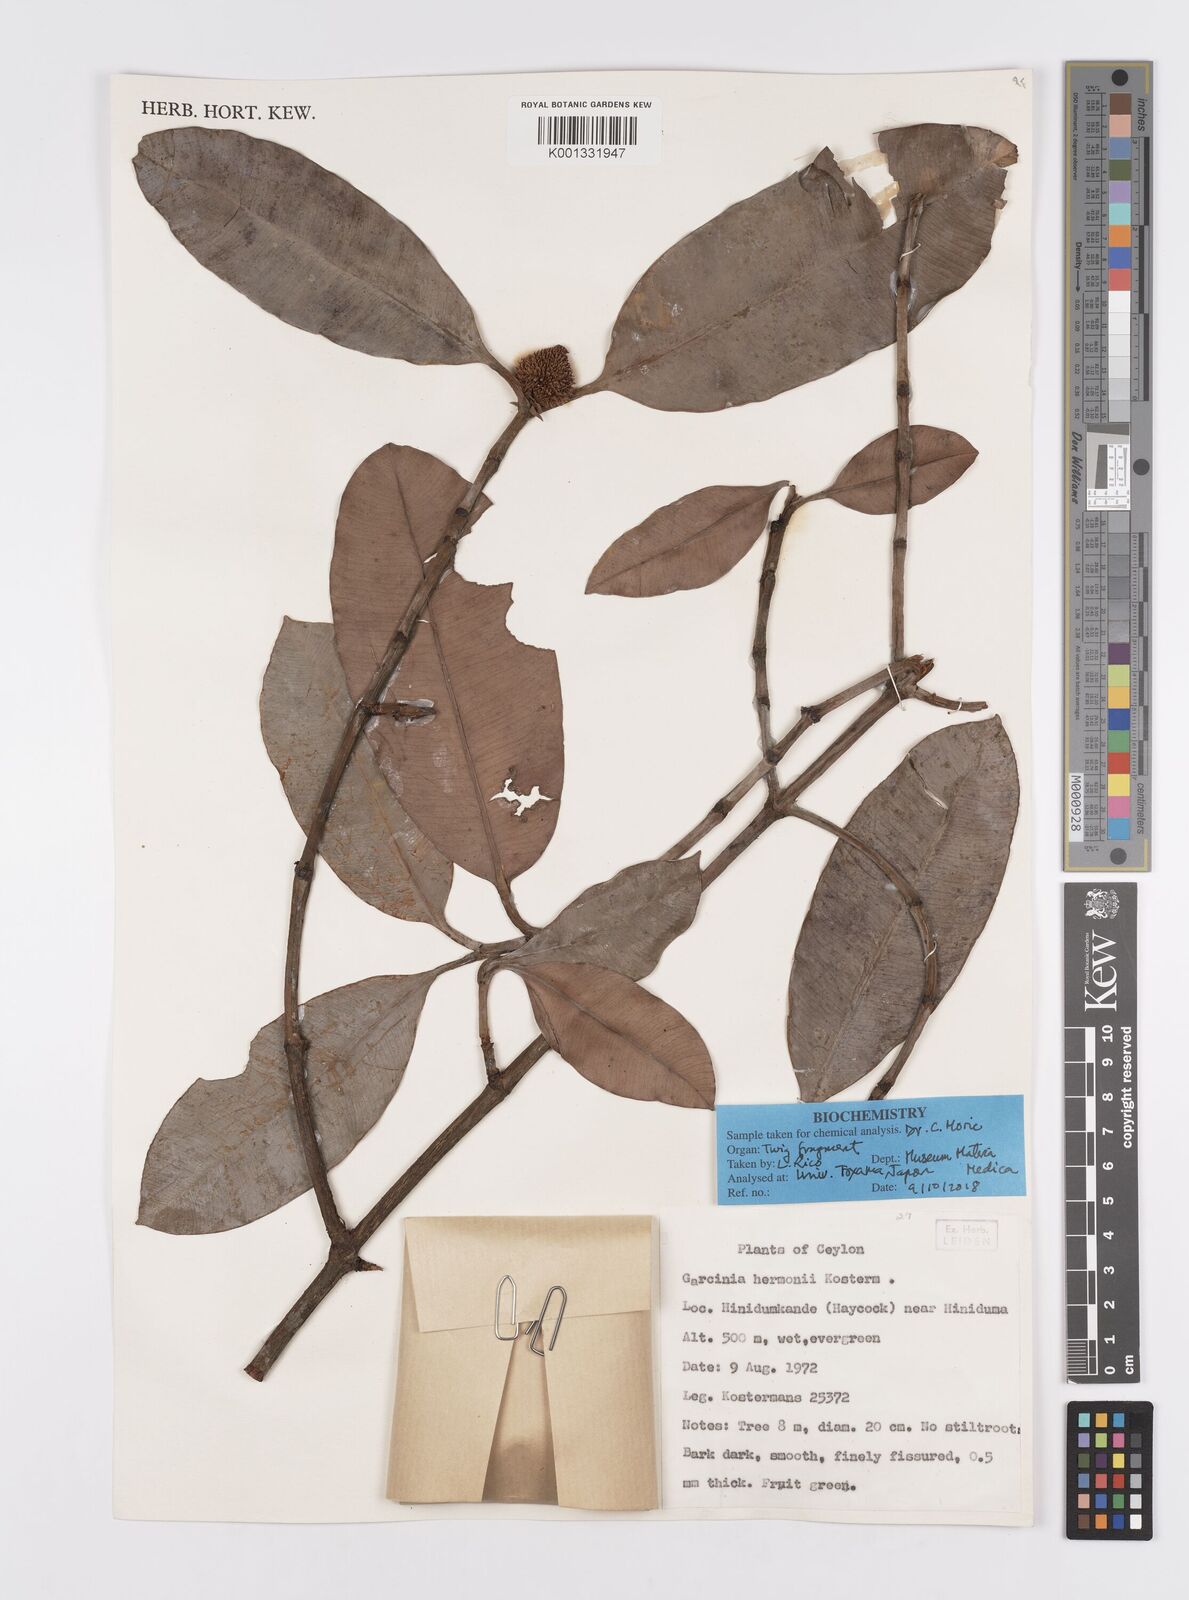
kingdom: Plantae
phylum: Tracheophyta
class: Magnoliopsida
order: Malpighiales
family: Clusiaceae
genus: Garcinia
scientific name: Garcinia hermonii
